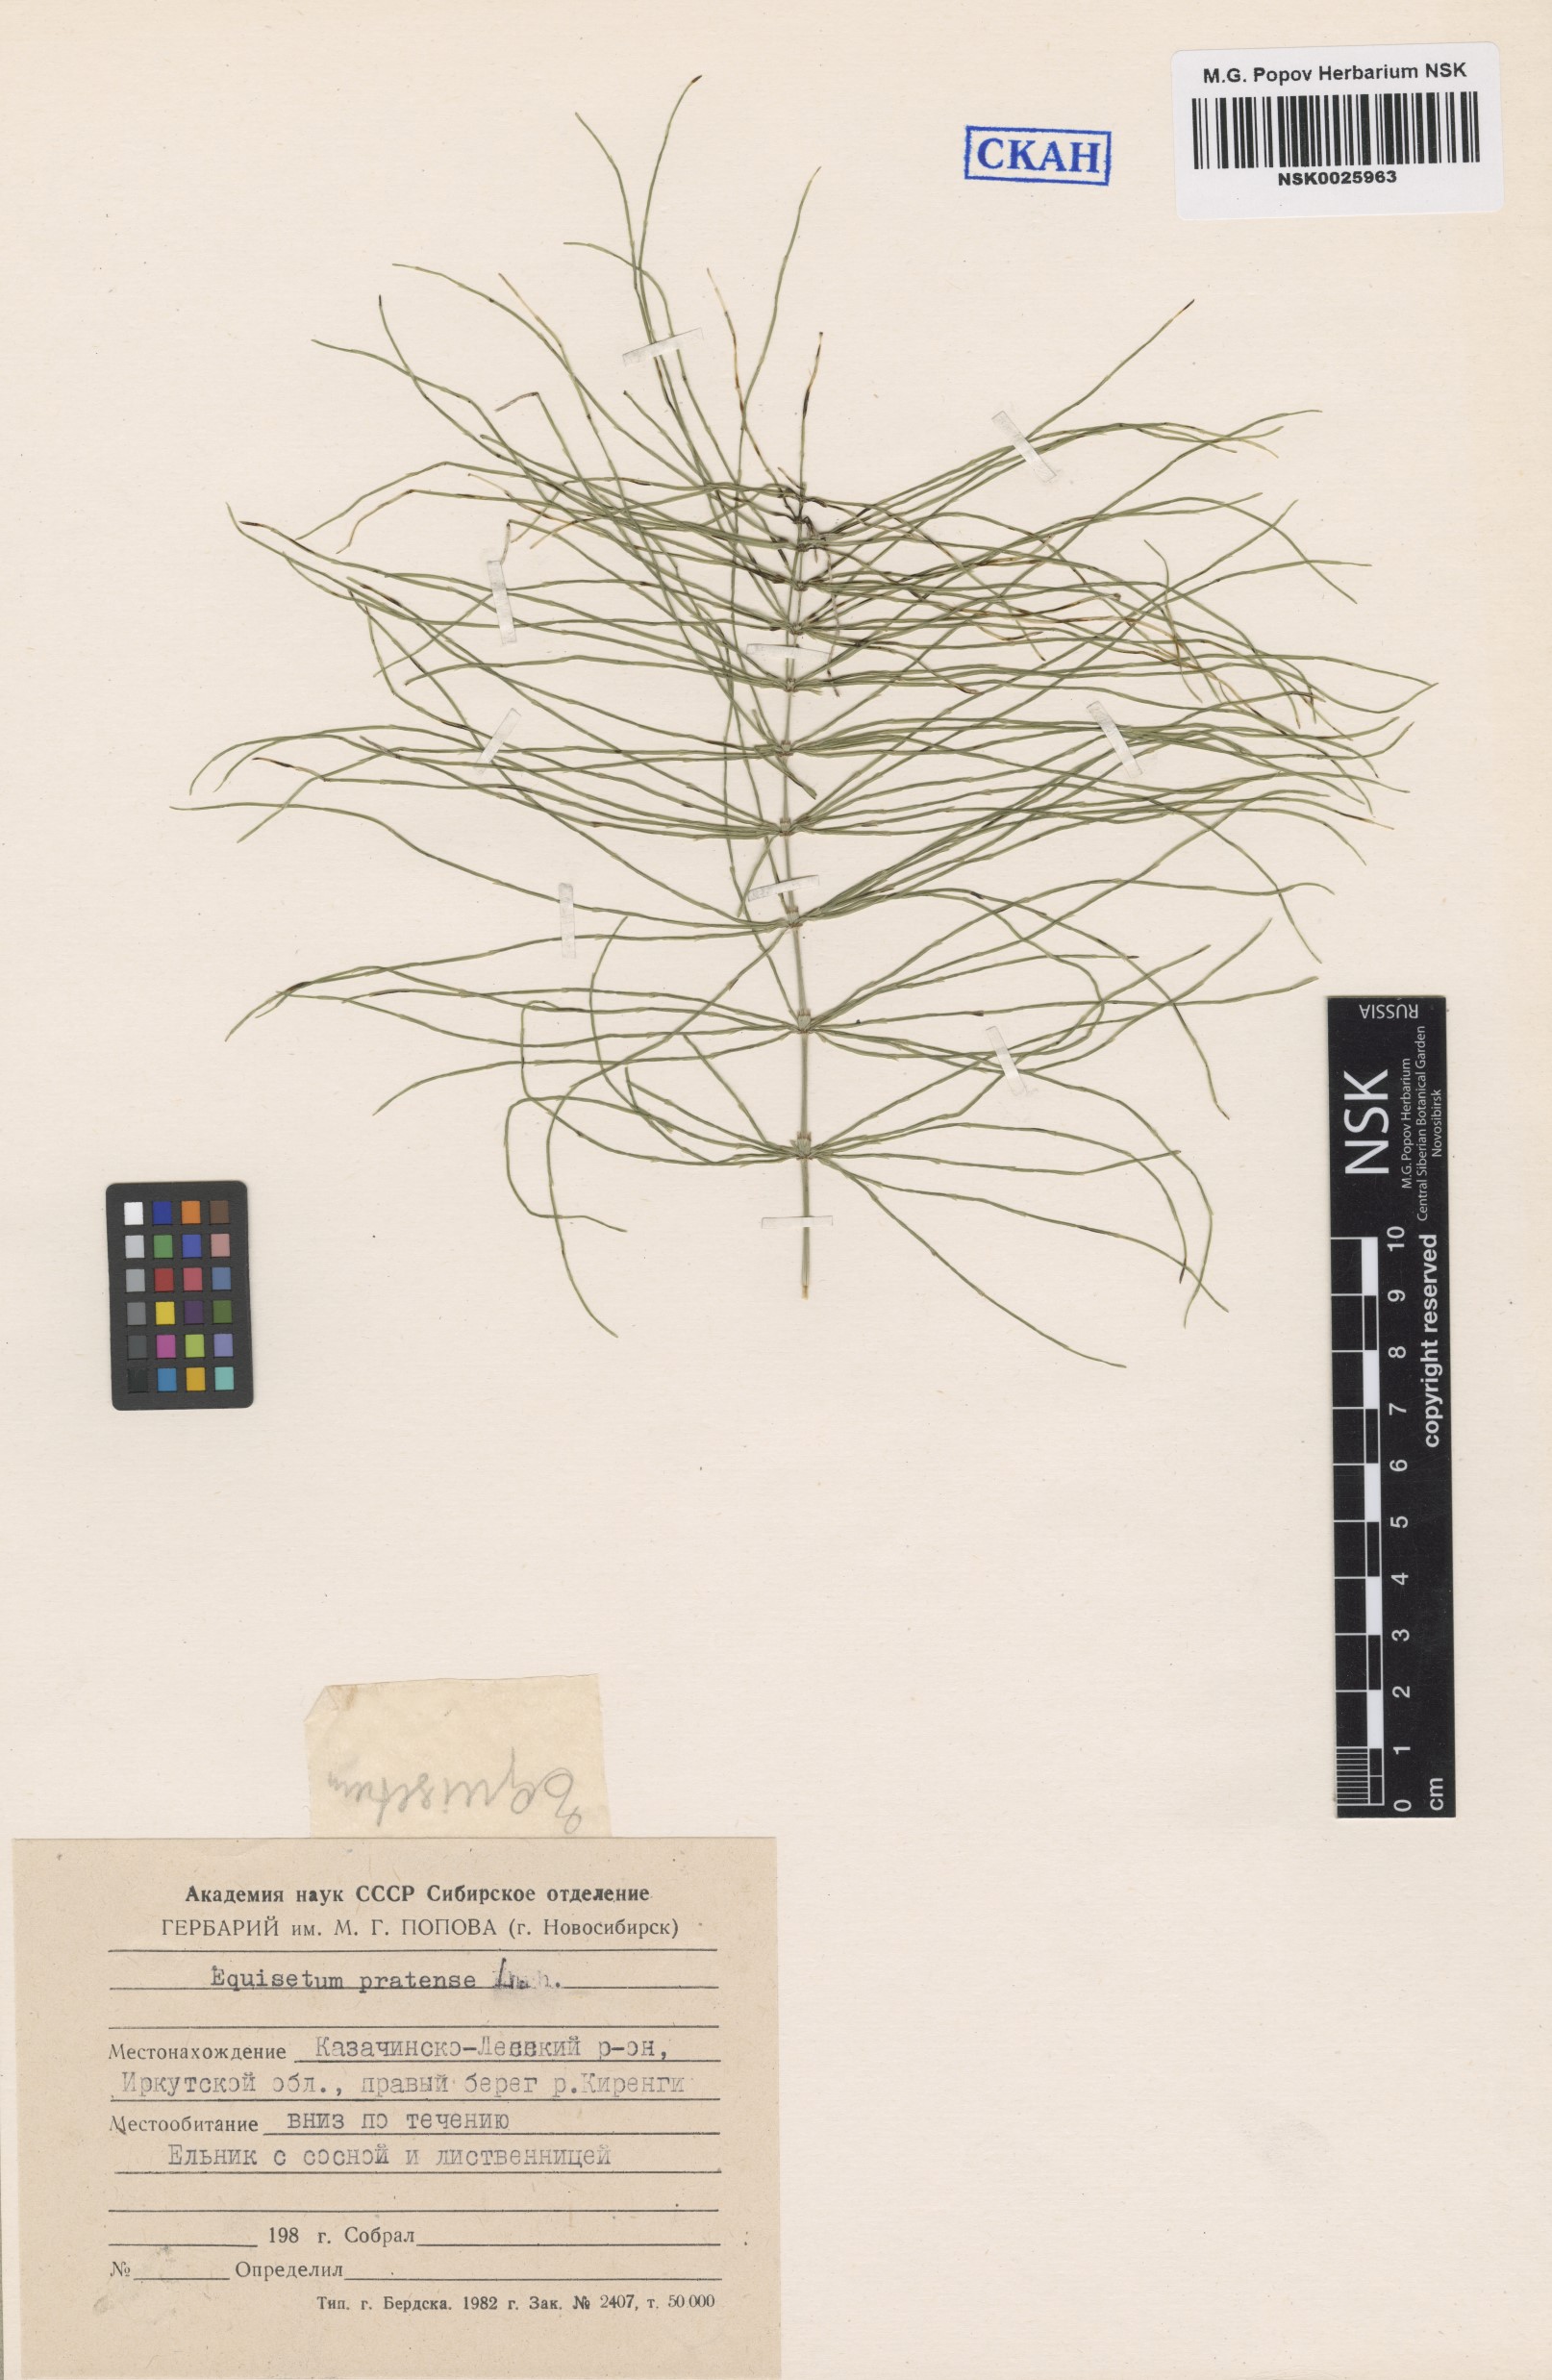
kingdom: Plantae
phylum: Tracheophyta
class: Polypodiopsida
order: Equisetales
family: Equisetaceae
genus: Equisetum
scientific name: Equisetum pratense
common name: Meadow horsetail
